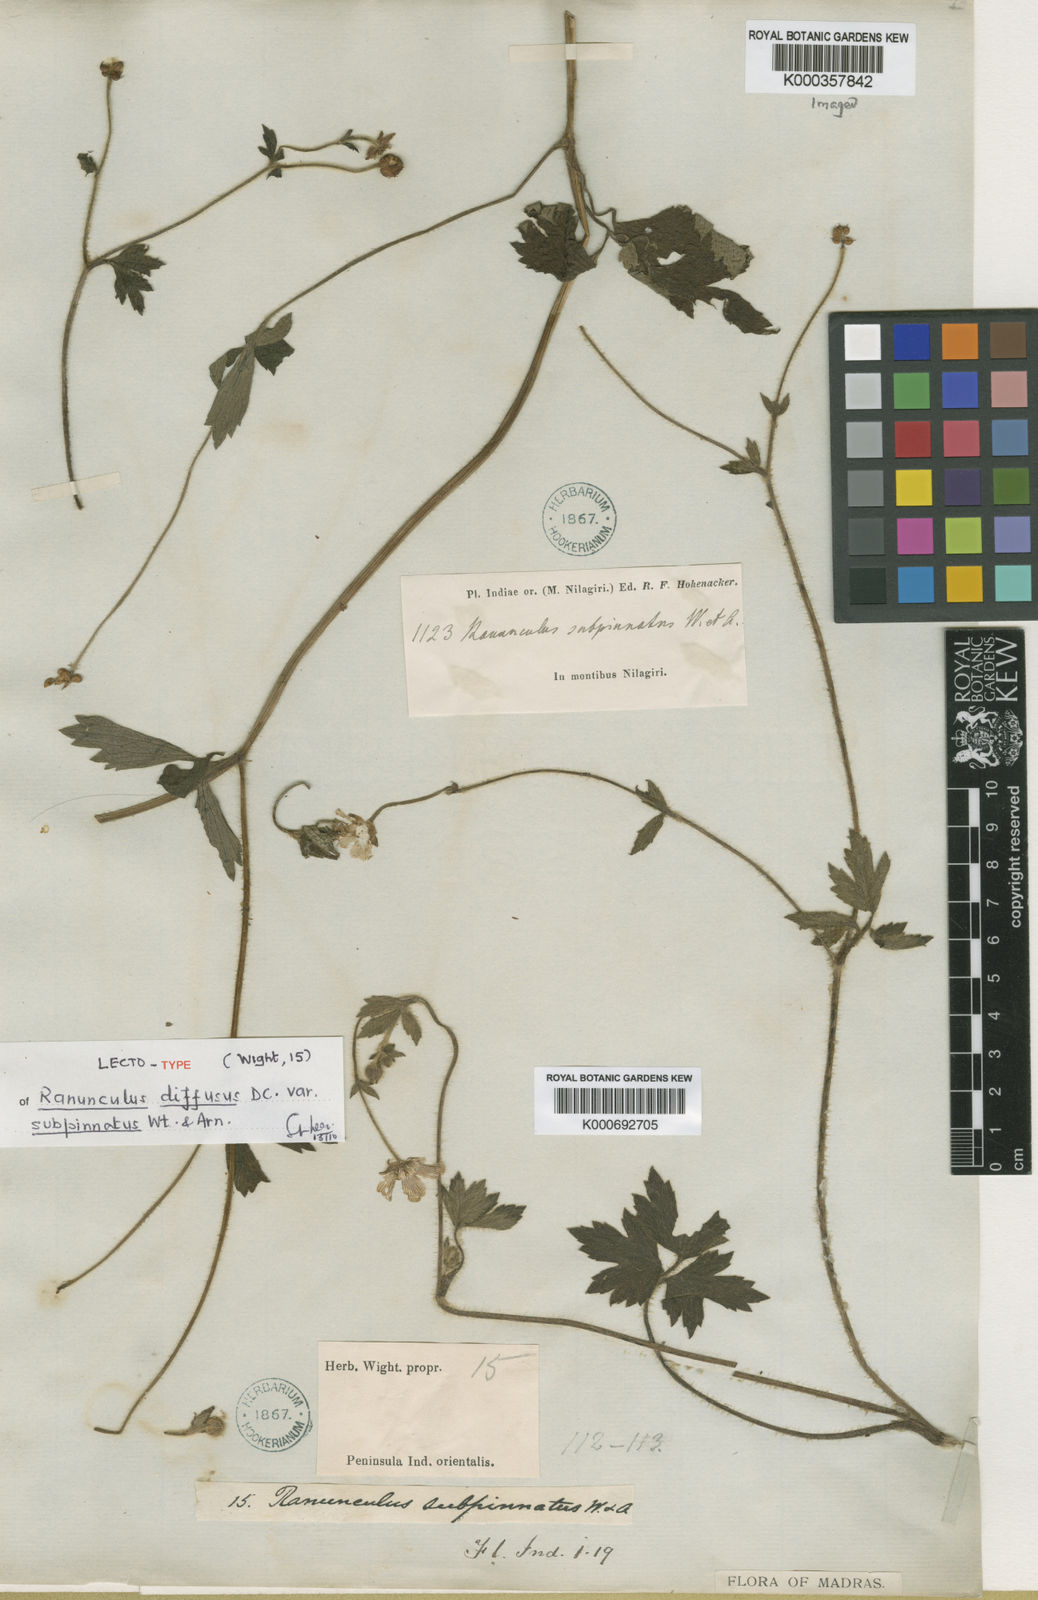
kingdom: Plantae
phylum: Tracheophyta
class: Magnoliopsida
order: Ranunculales
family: Ranunculaceae
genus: Ranunculus
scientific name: Ranunculus diffusus
